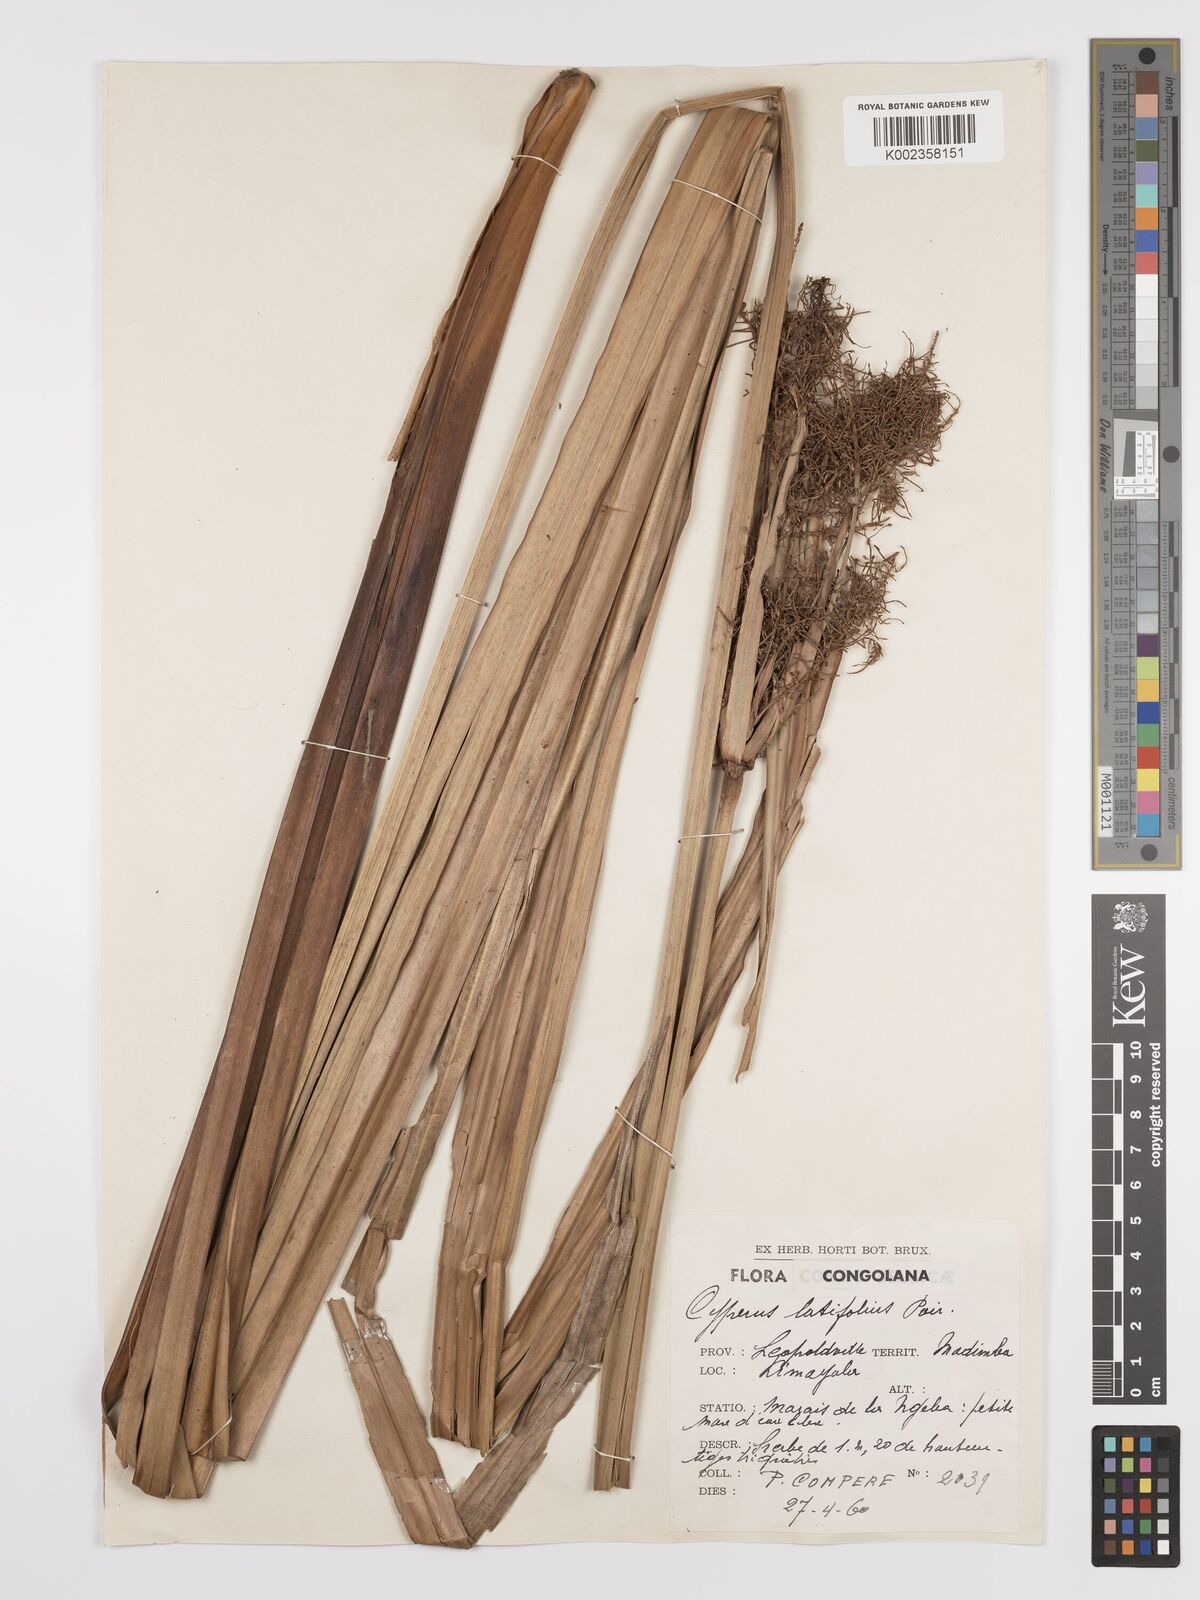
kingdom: Plantae
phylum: Tracheophyta
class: Liliopsida
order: Poales
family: Cyperaceae
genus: Cyperus
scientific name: Cyperus latifolius
